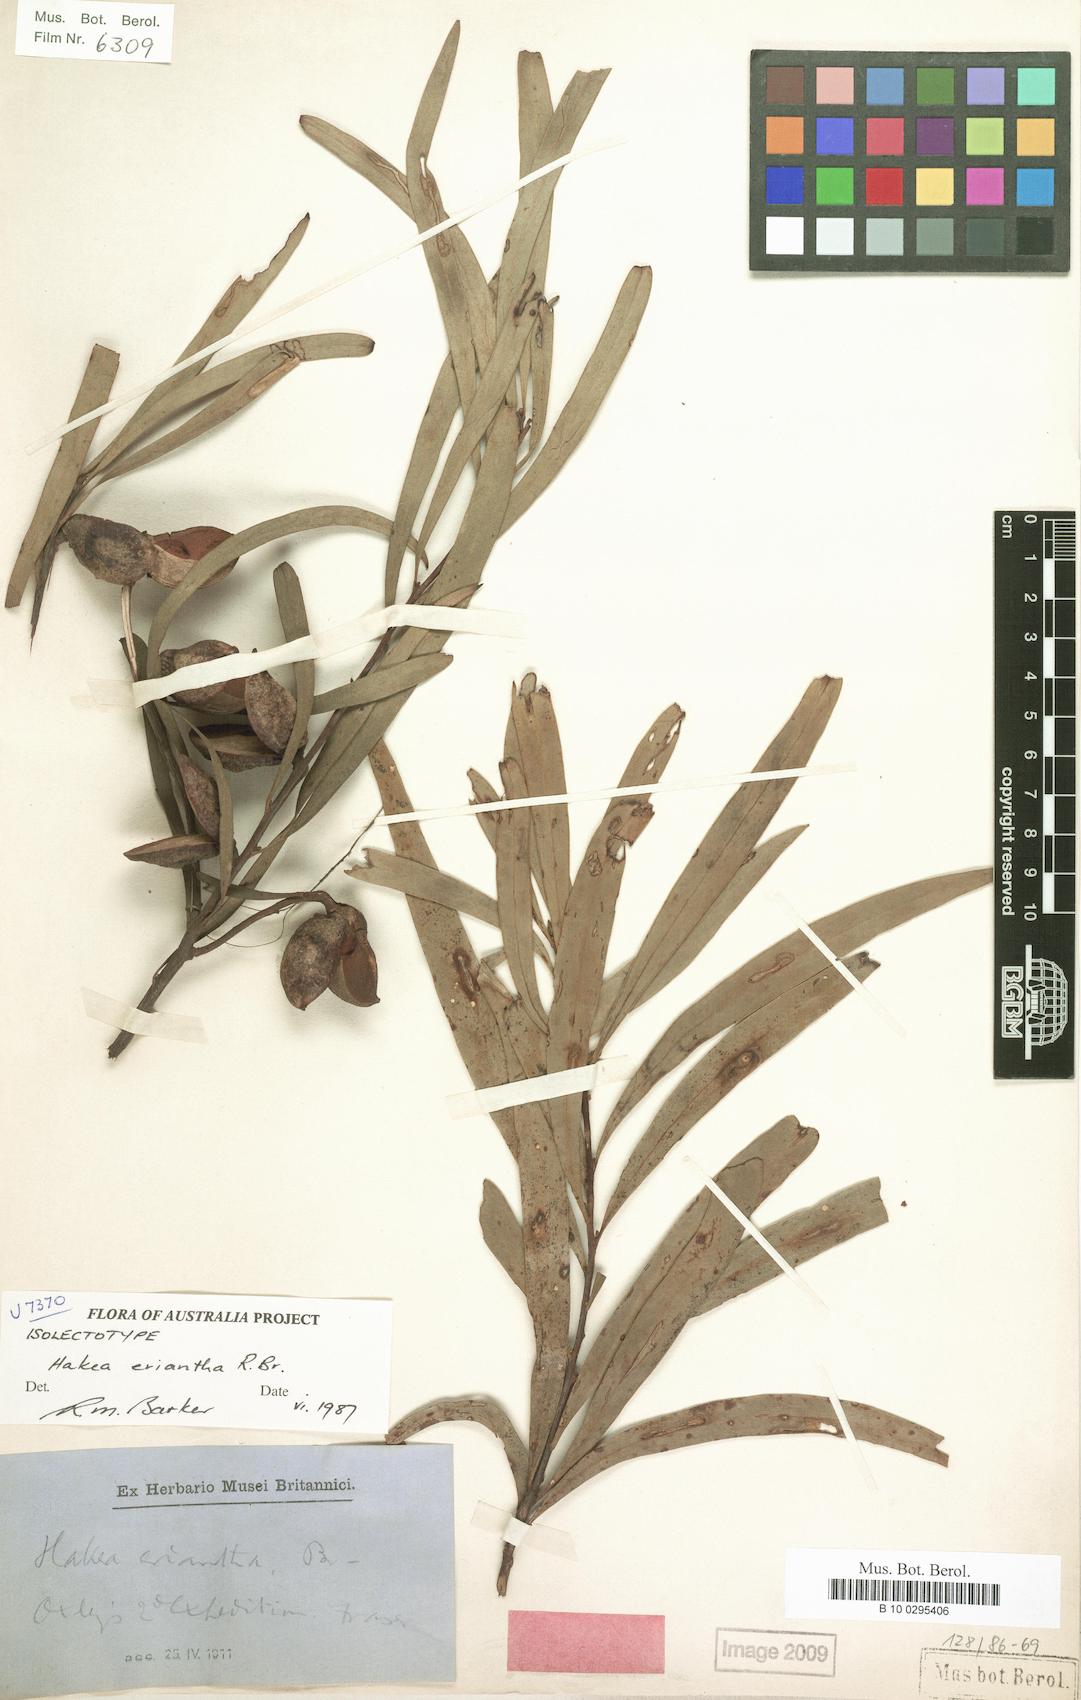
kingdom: Plantae
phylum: Tracheophyta
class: Magnoliopsida
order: Proteales
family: Proteaceae
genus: Hakea
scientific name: Hakea eriantha
